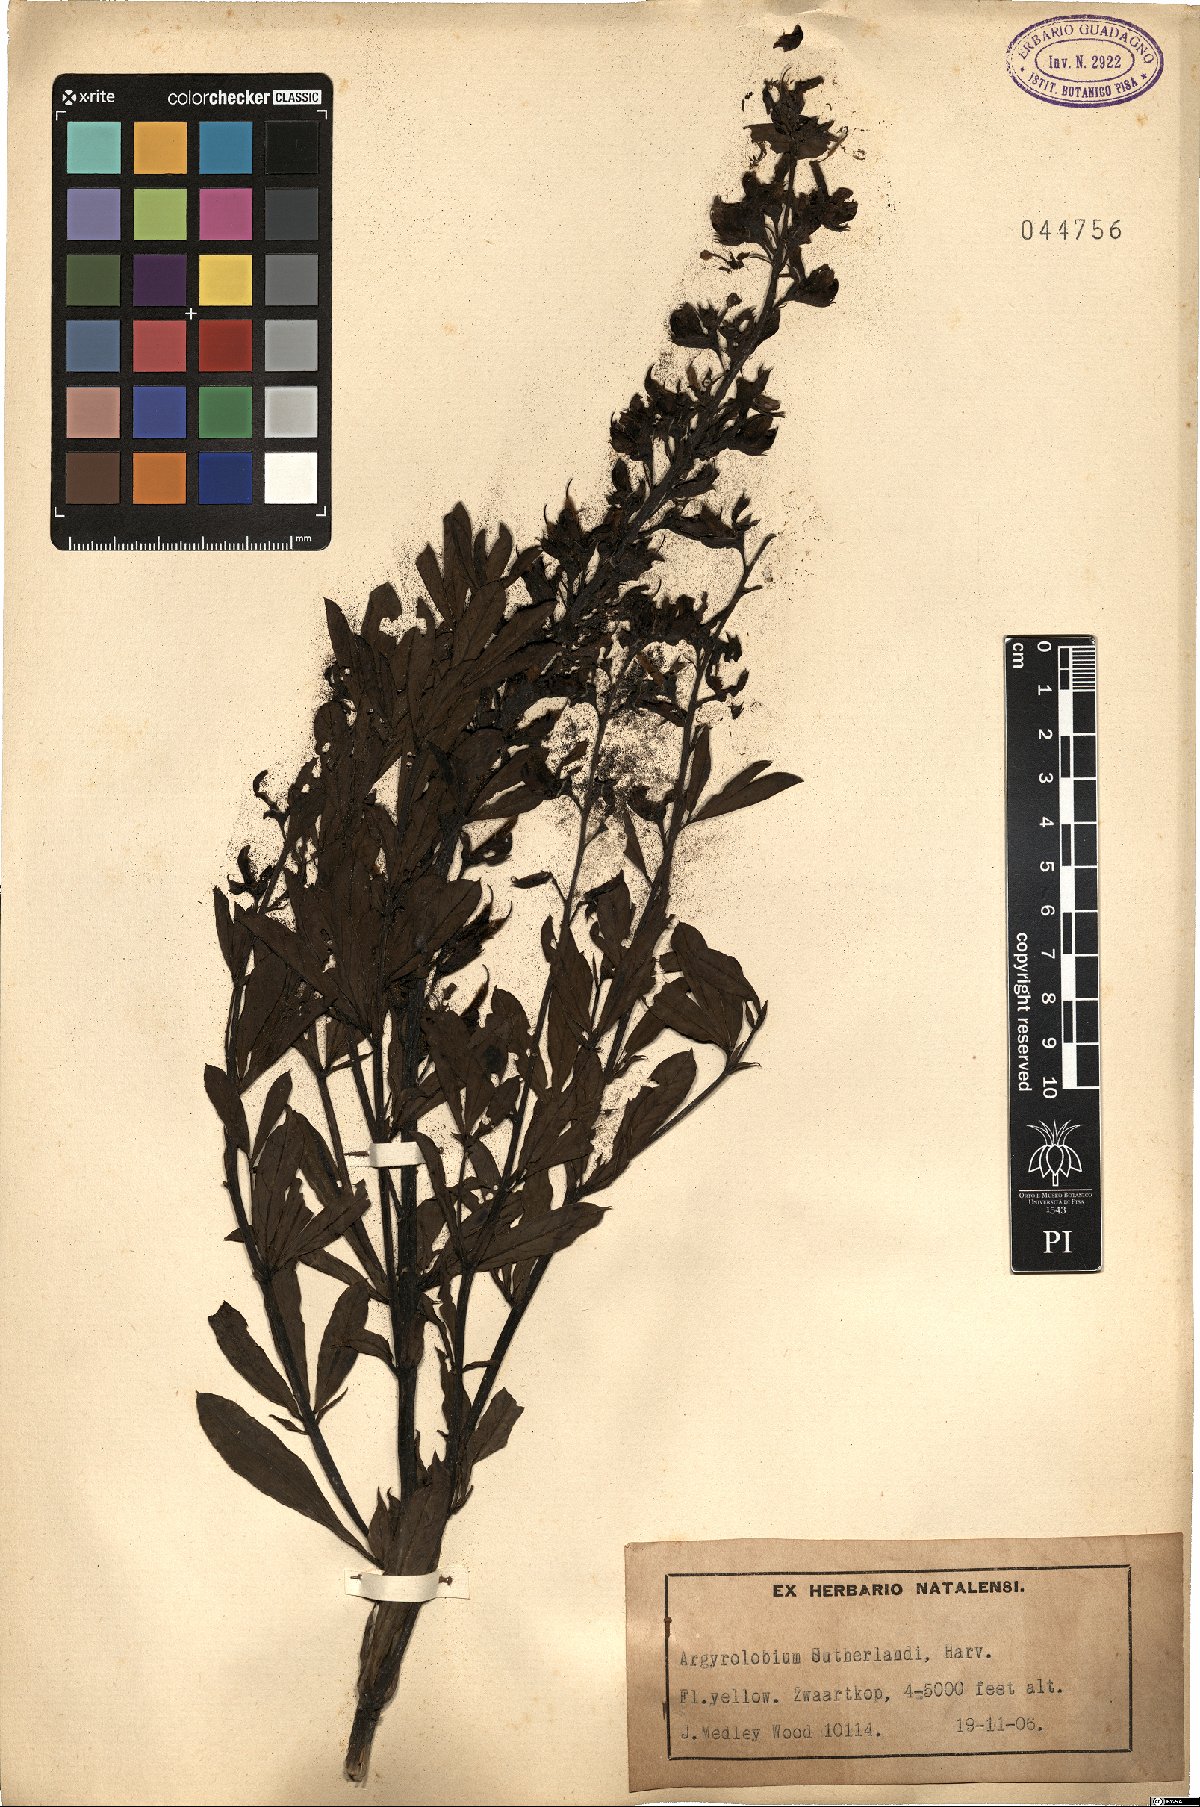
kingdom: Plantae
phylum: Tracheophyta
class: Magnoliopsida
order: Fabales
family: Fabaceae
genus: Argyrolobium
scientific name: Argyrolobium baptisioides
